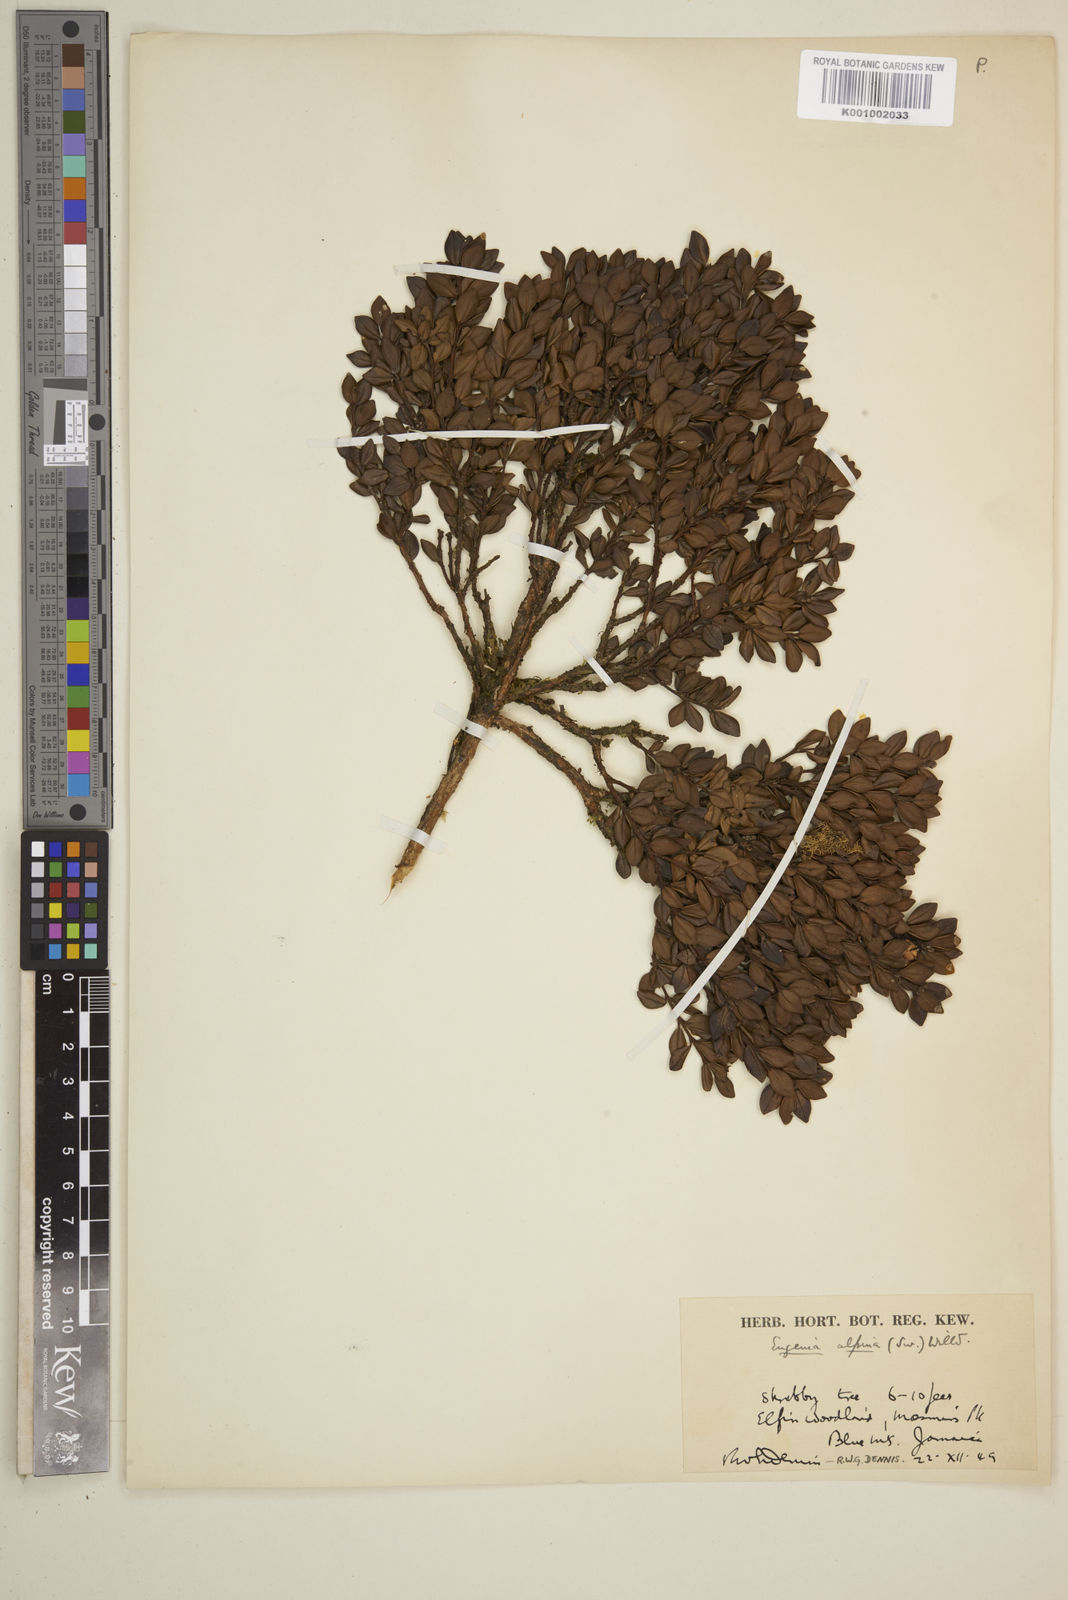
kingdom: Plantae
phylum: Tracheophyta
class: Magnoliopsida
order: Myrtales
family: Myrtaceae
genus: Eugenia
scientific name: Eugenia alpina
